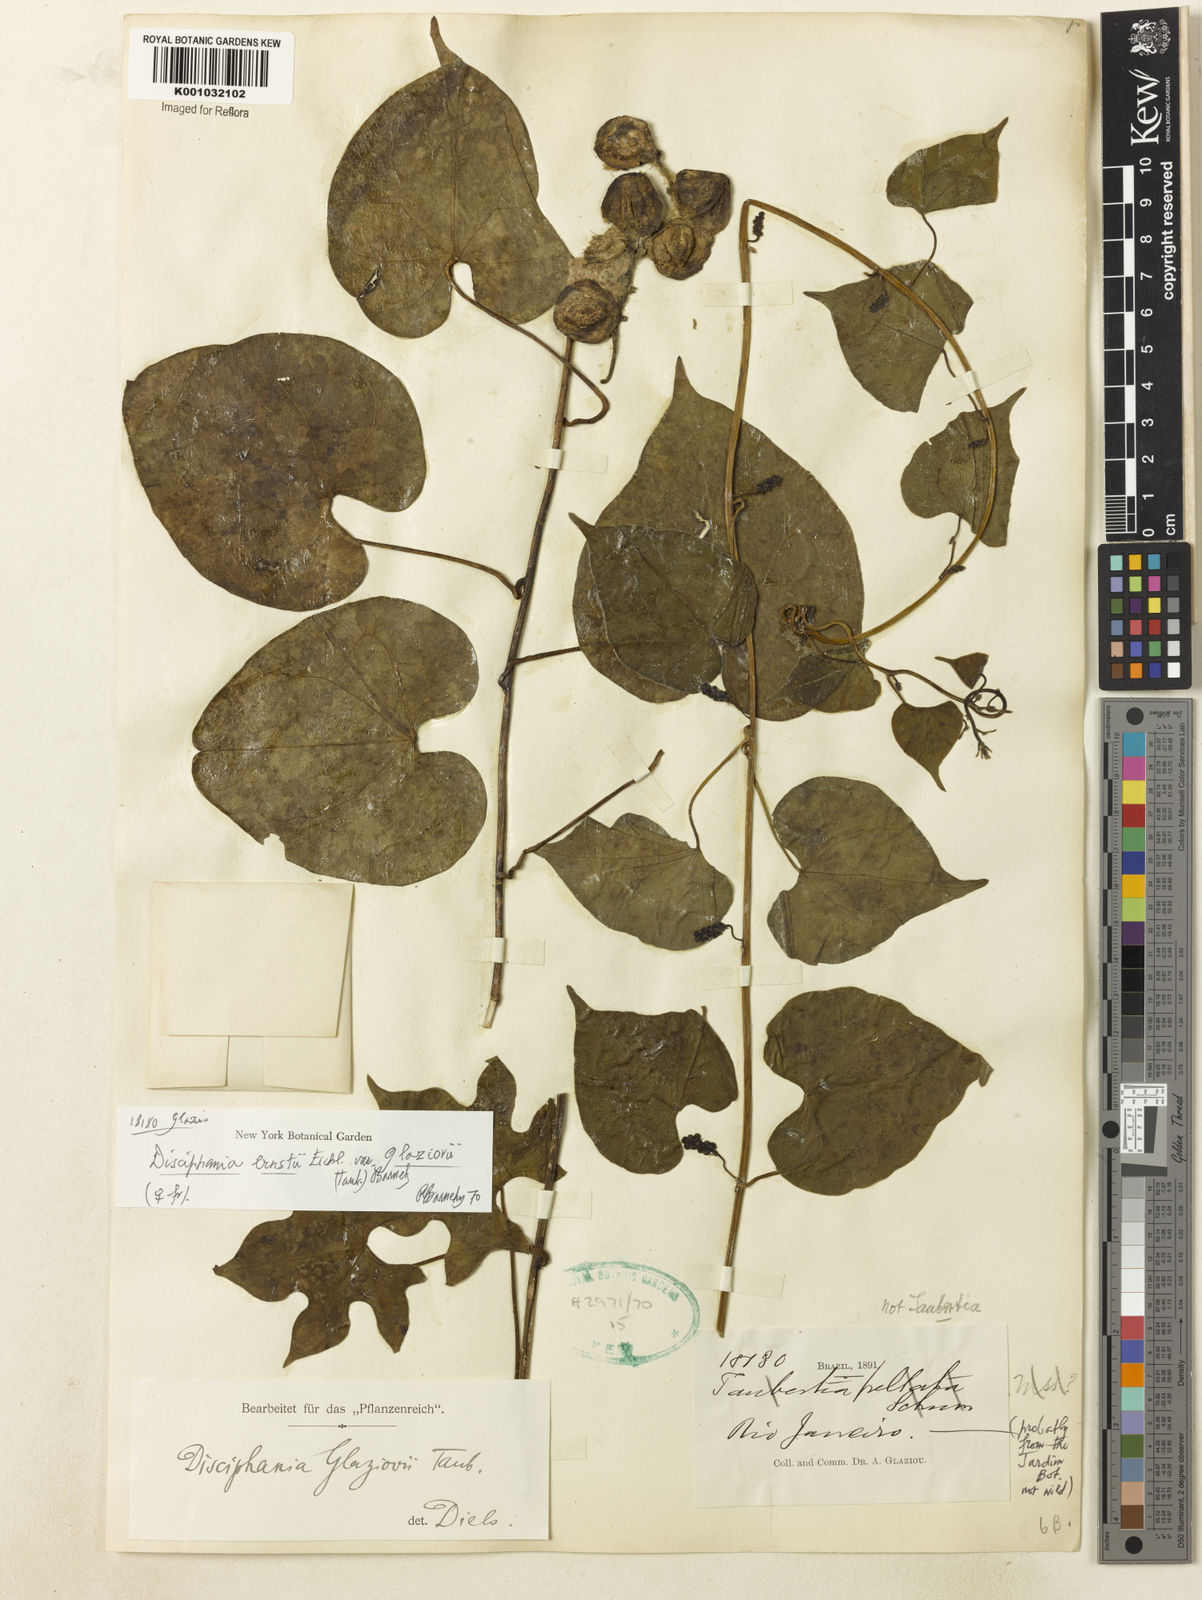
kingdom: Plantae
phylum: Tracheophyta
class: Magnoliopsida
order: Ranunculales
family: Menispermaceae
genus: Disciphania
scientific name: Disciphania ernstii
